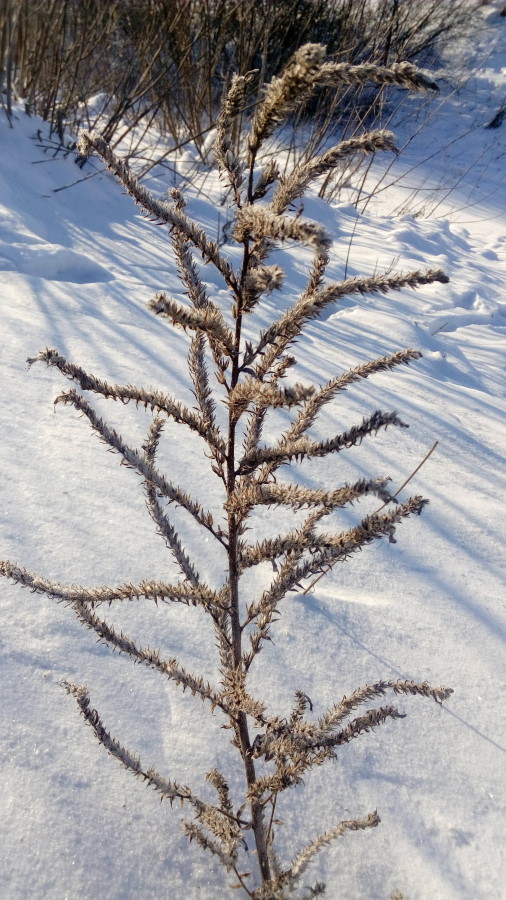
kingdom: Plantae
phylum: Tracheophyta
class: Magnoliopsida
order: Boraginales
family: Boraginaceae
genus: Echium
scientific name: Echium vulgare
